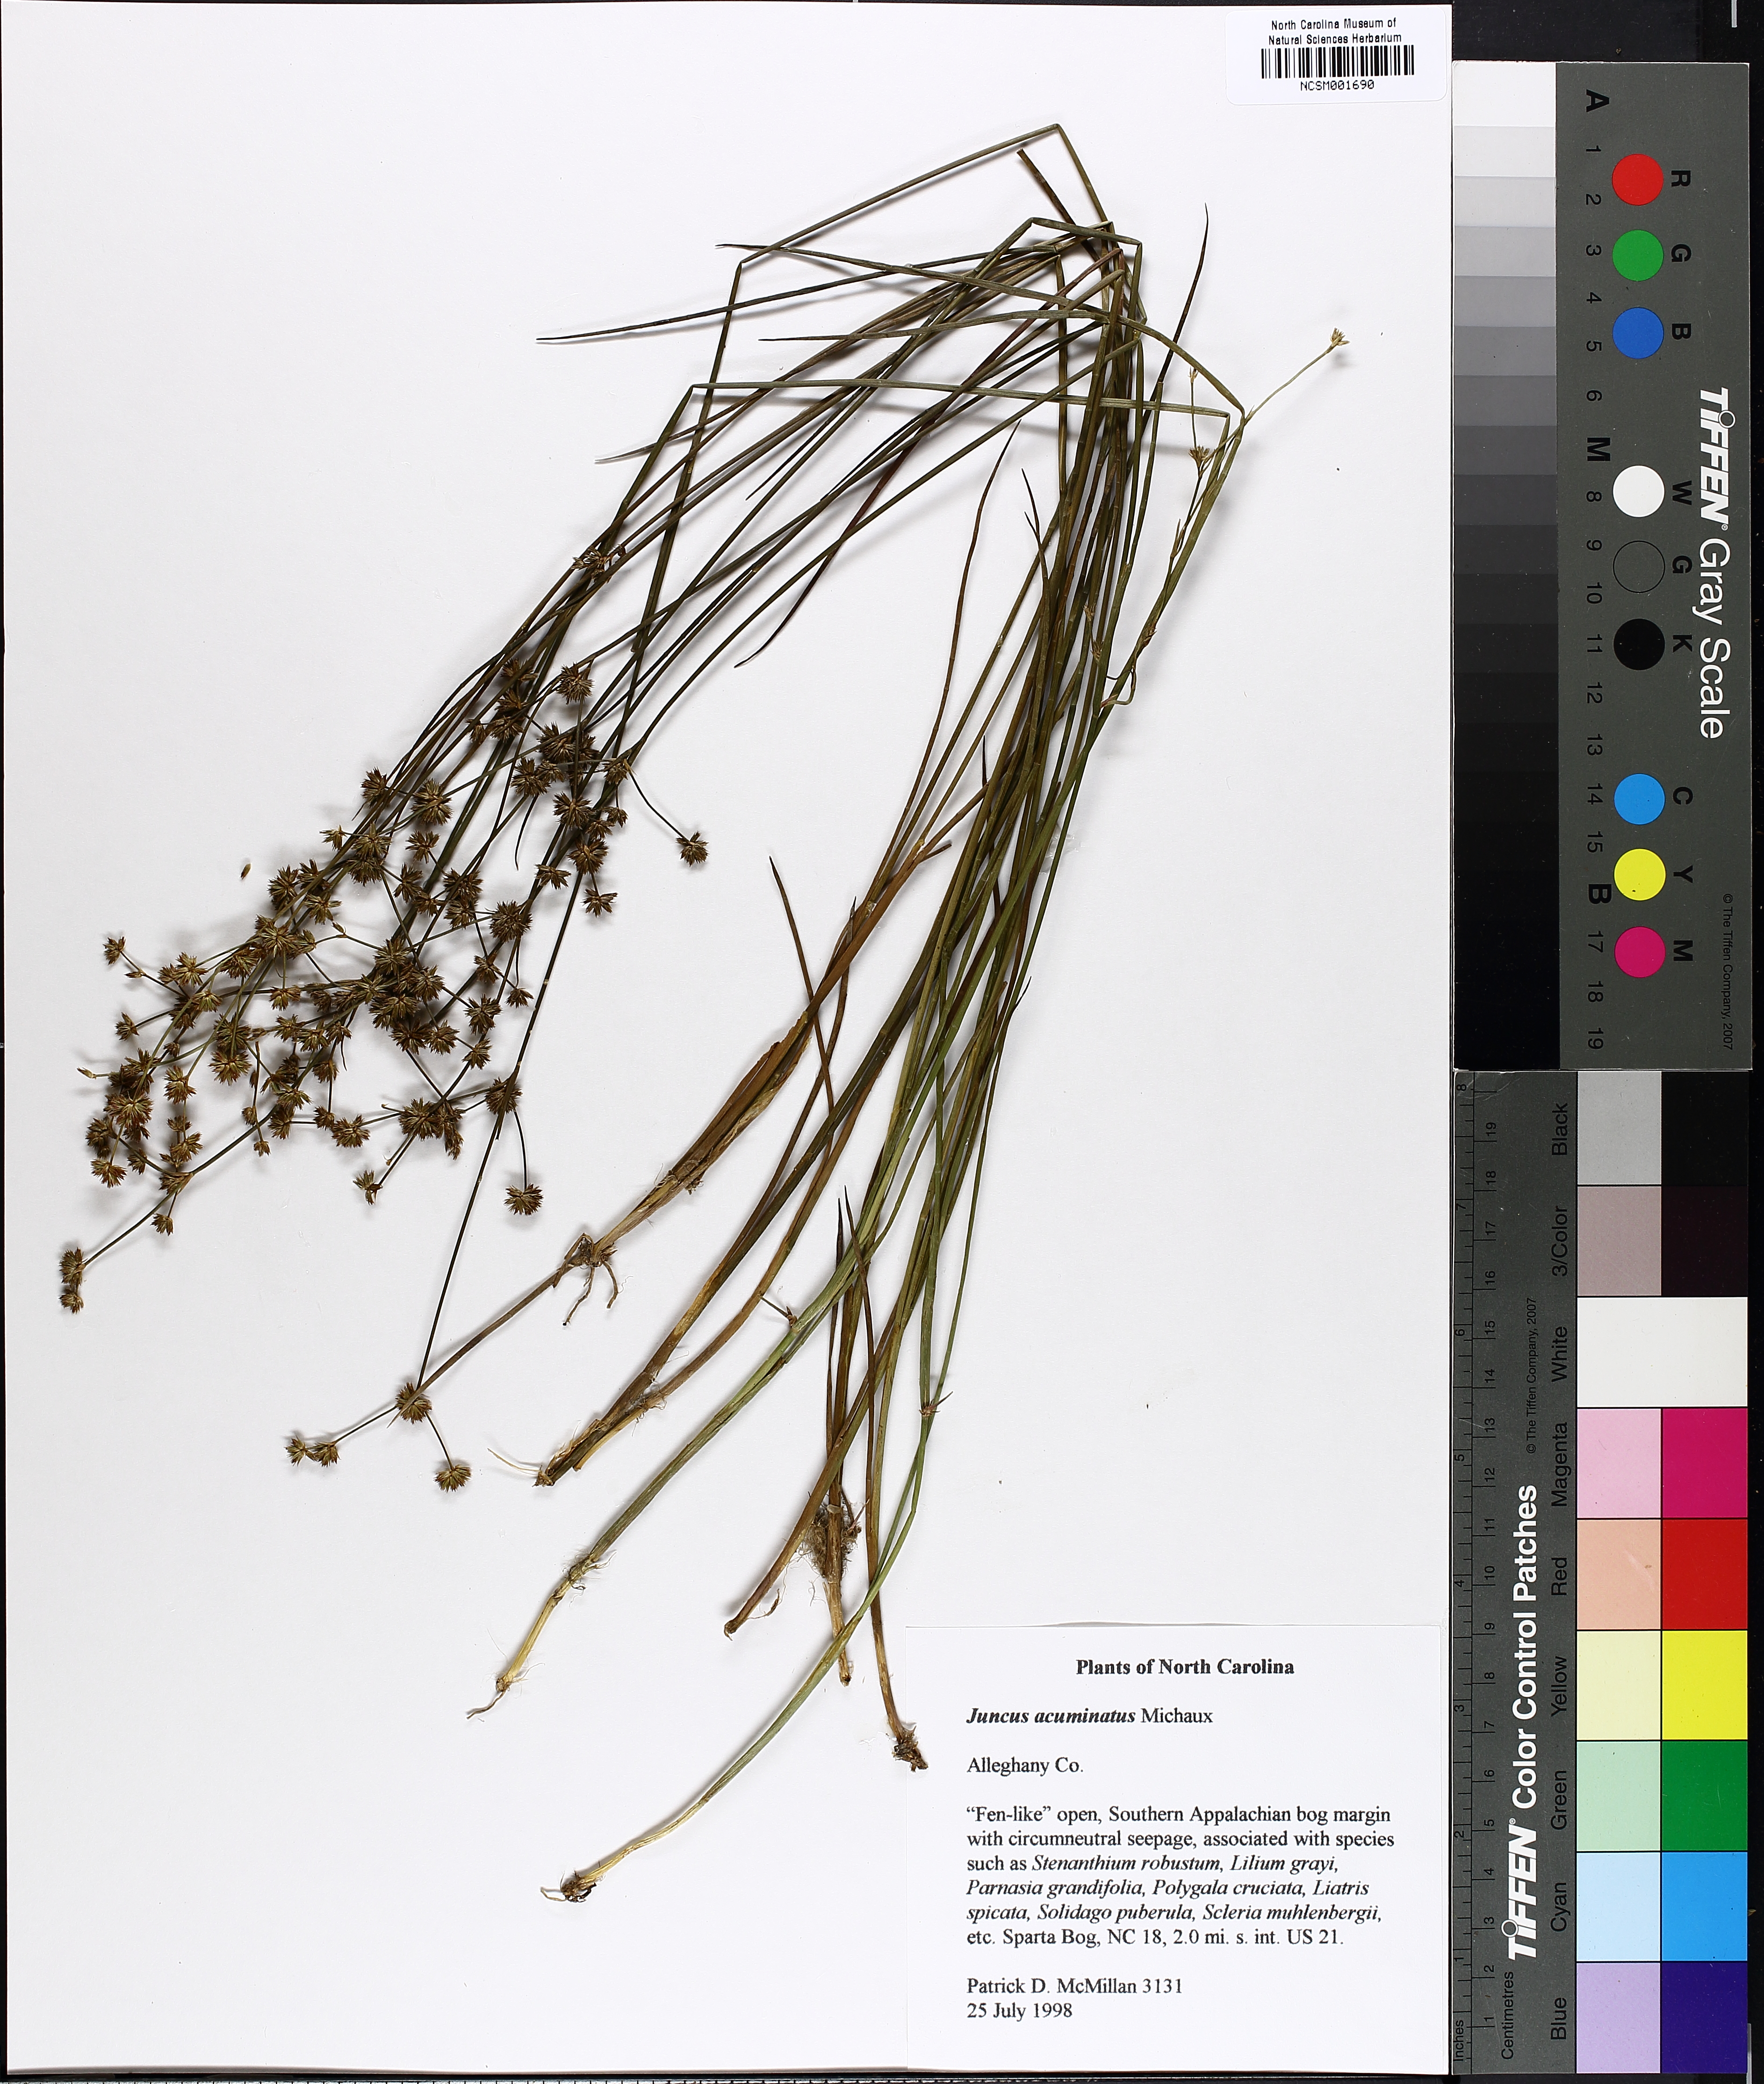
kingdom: Plantae
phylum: Tracheophyta
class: Liliopsida
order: Poales
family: Juncaceae
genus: Juncus
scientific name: Juncus acuminatus
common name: Knotty-leaved rush
